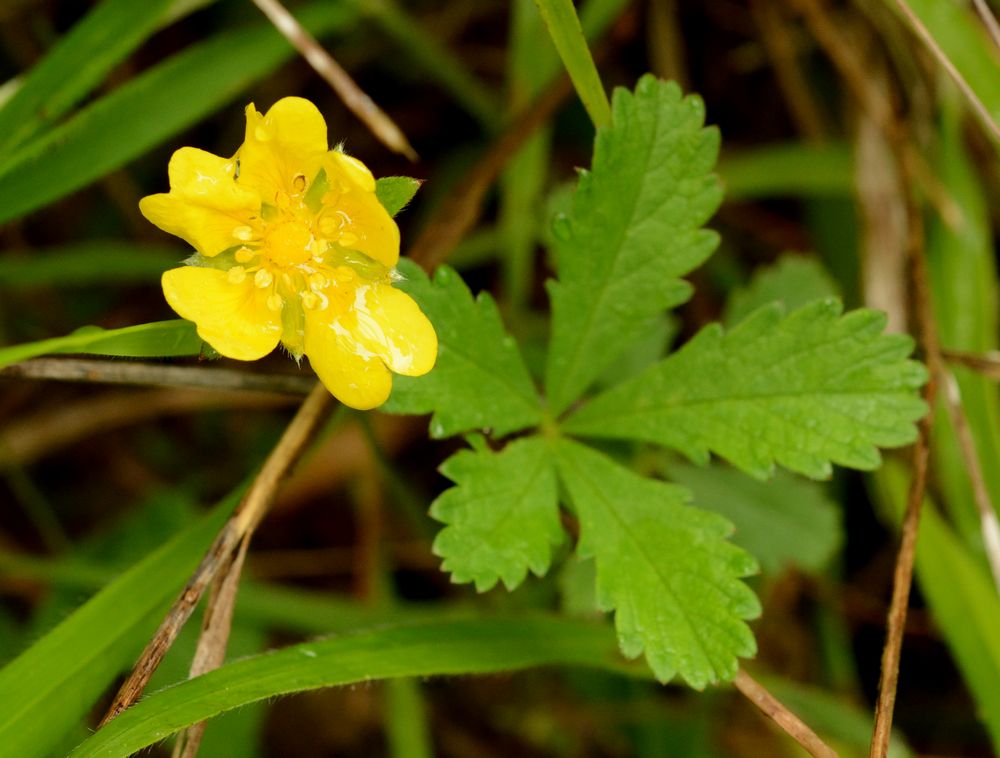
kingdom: Plantae
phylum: Tracheophyta
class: Magnoliopsida
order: Rosales
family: Rosaceae
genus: Potentilla
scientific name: Potentilla reptans
